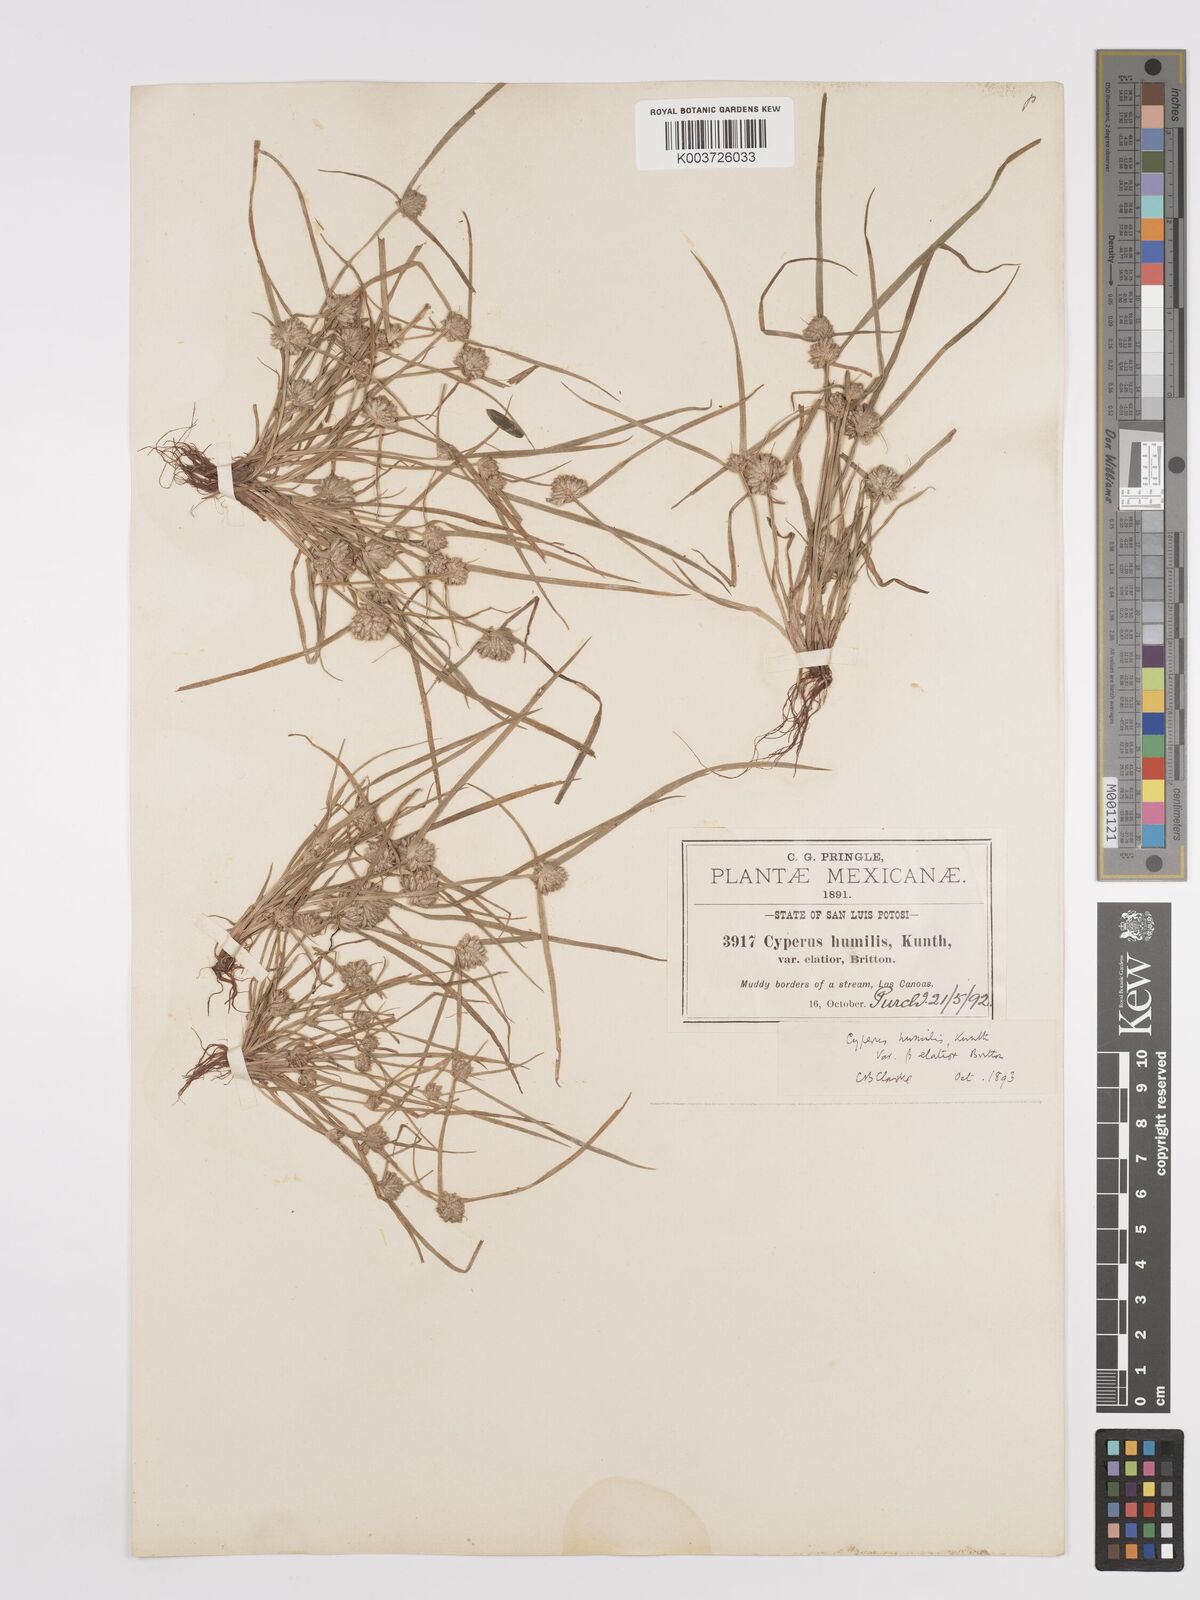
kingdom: Plantae
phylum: Tracheophyta
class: Liliopsida
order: Poales
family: Cyperaceae
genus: Cyperus
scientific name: Cyperus humilis
